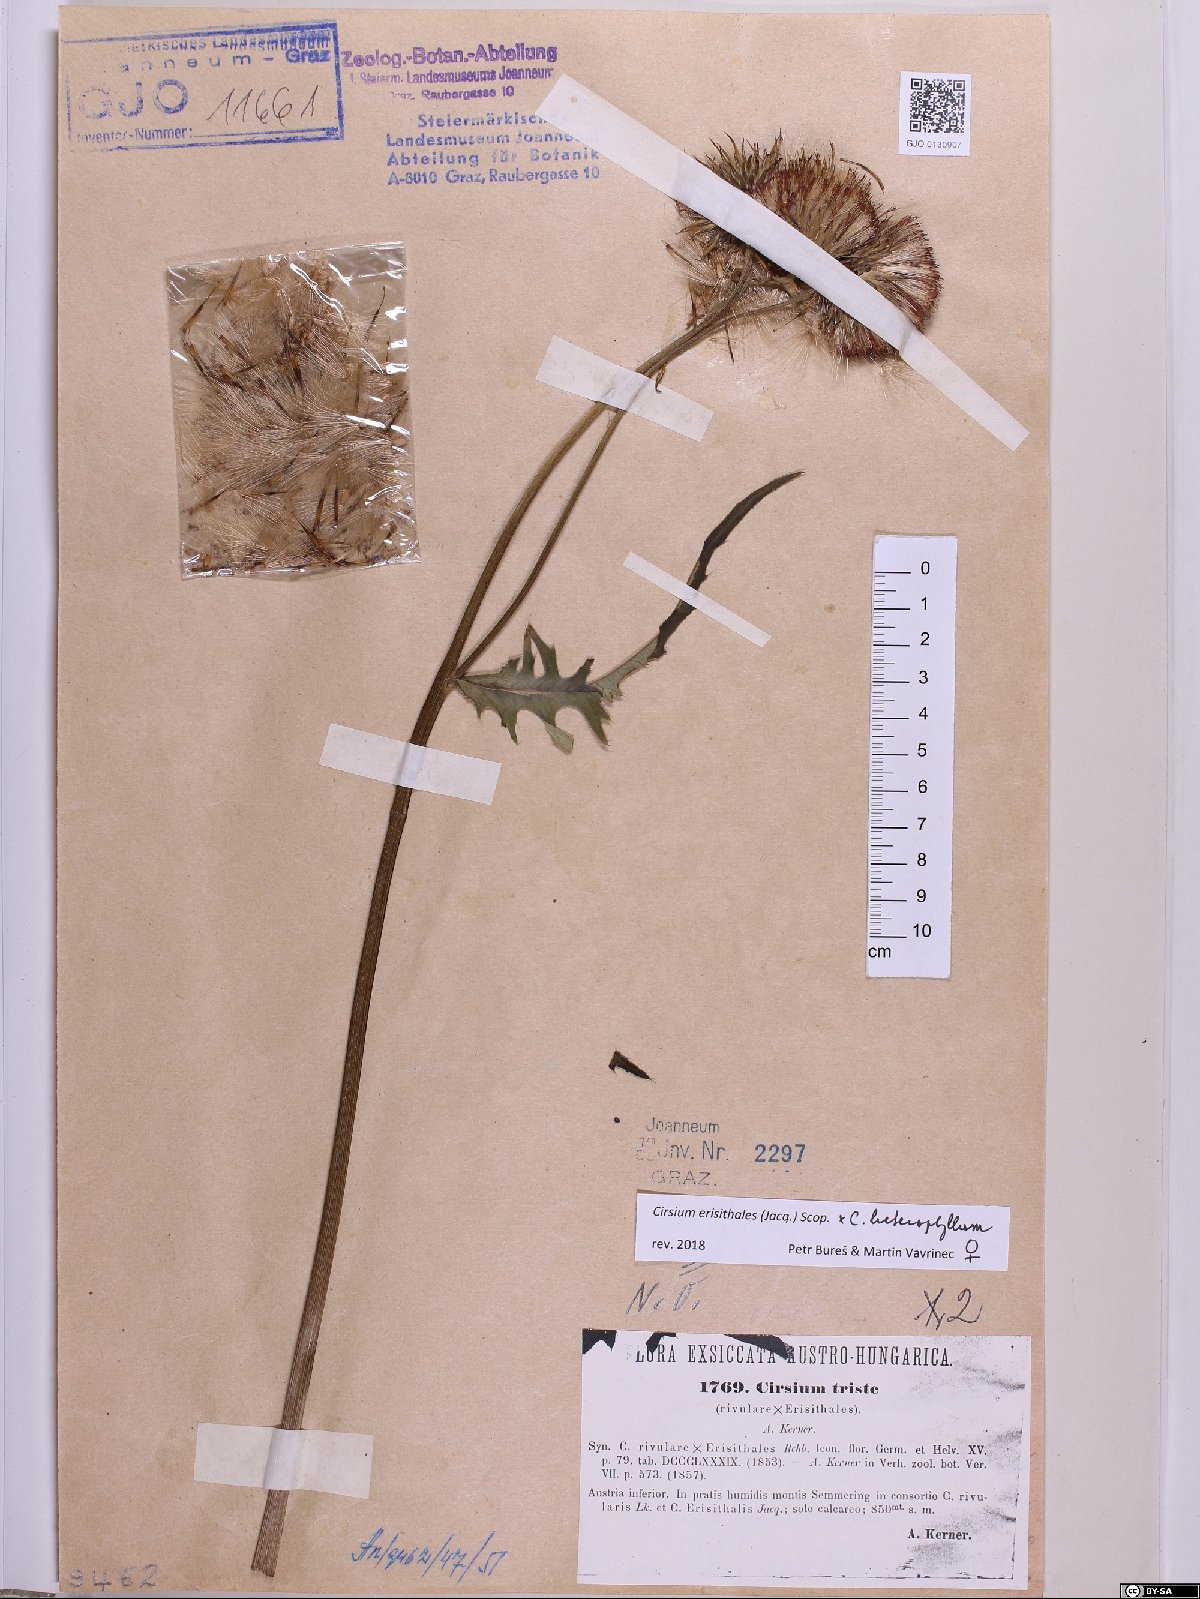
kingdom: Plantae
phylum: Tracheophyta
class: Magnoliopsida
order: Asterales
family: Asteraceae
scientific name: Asteraceae
